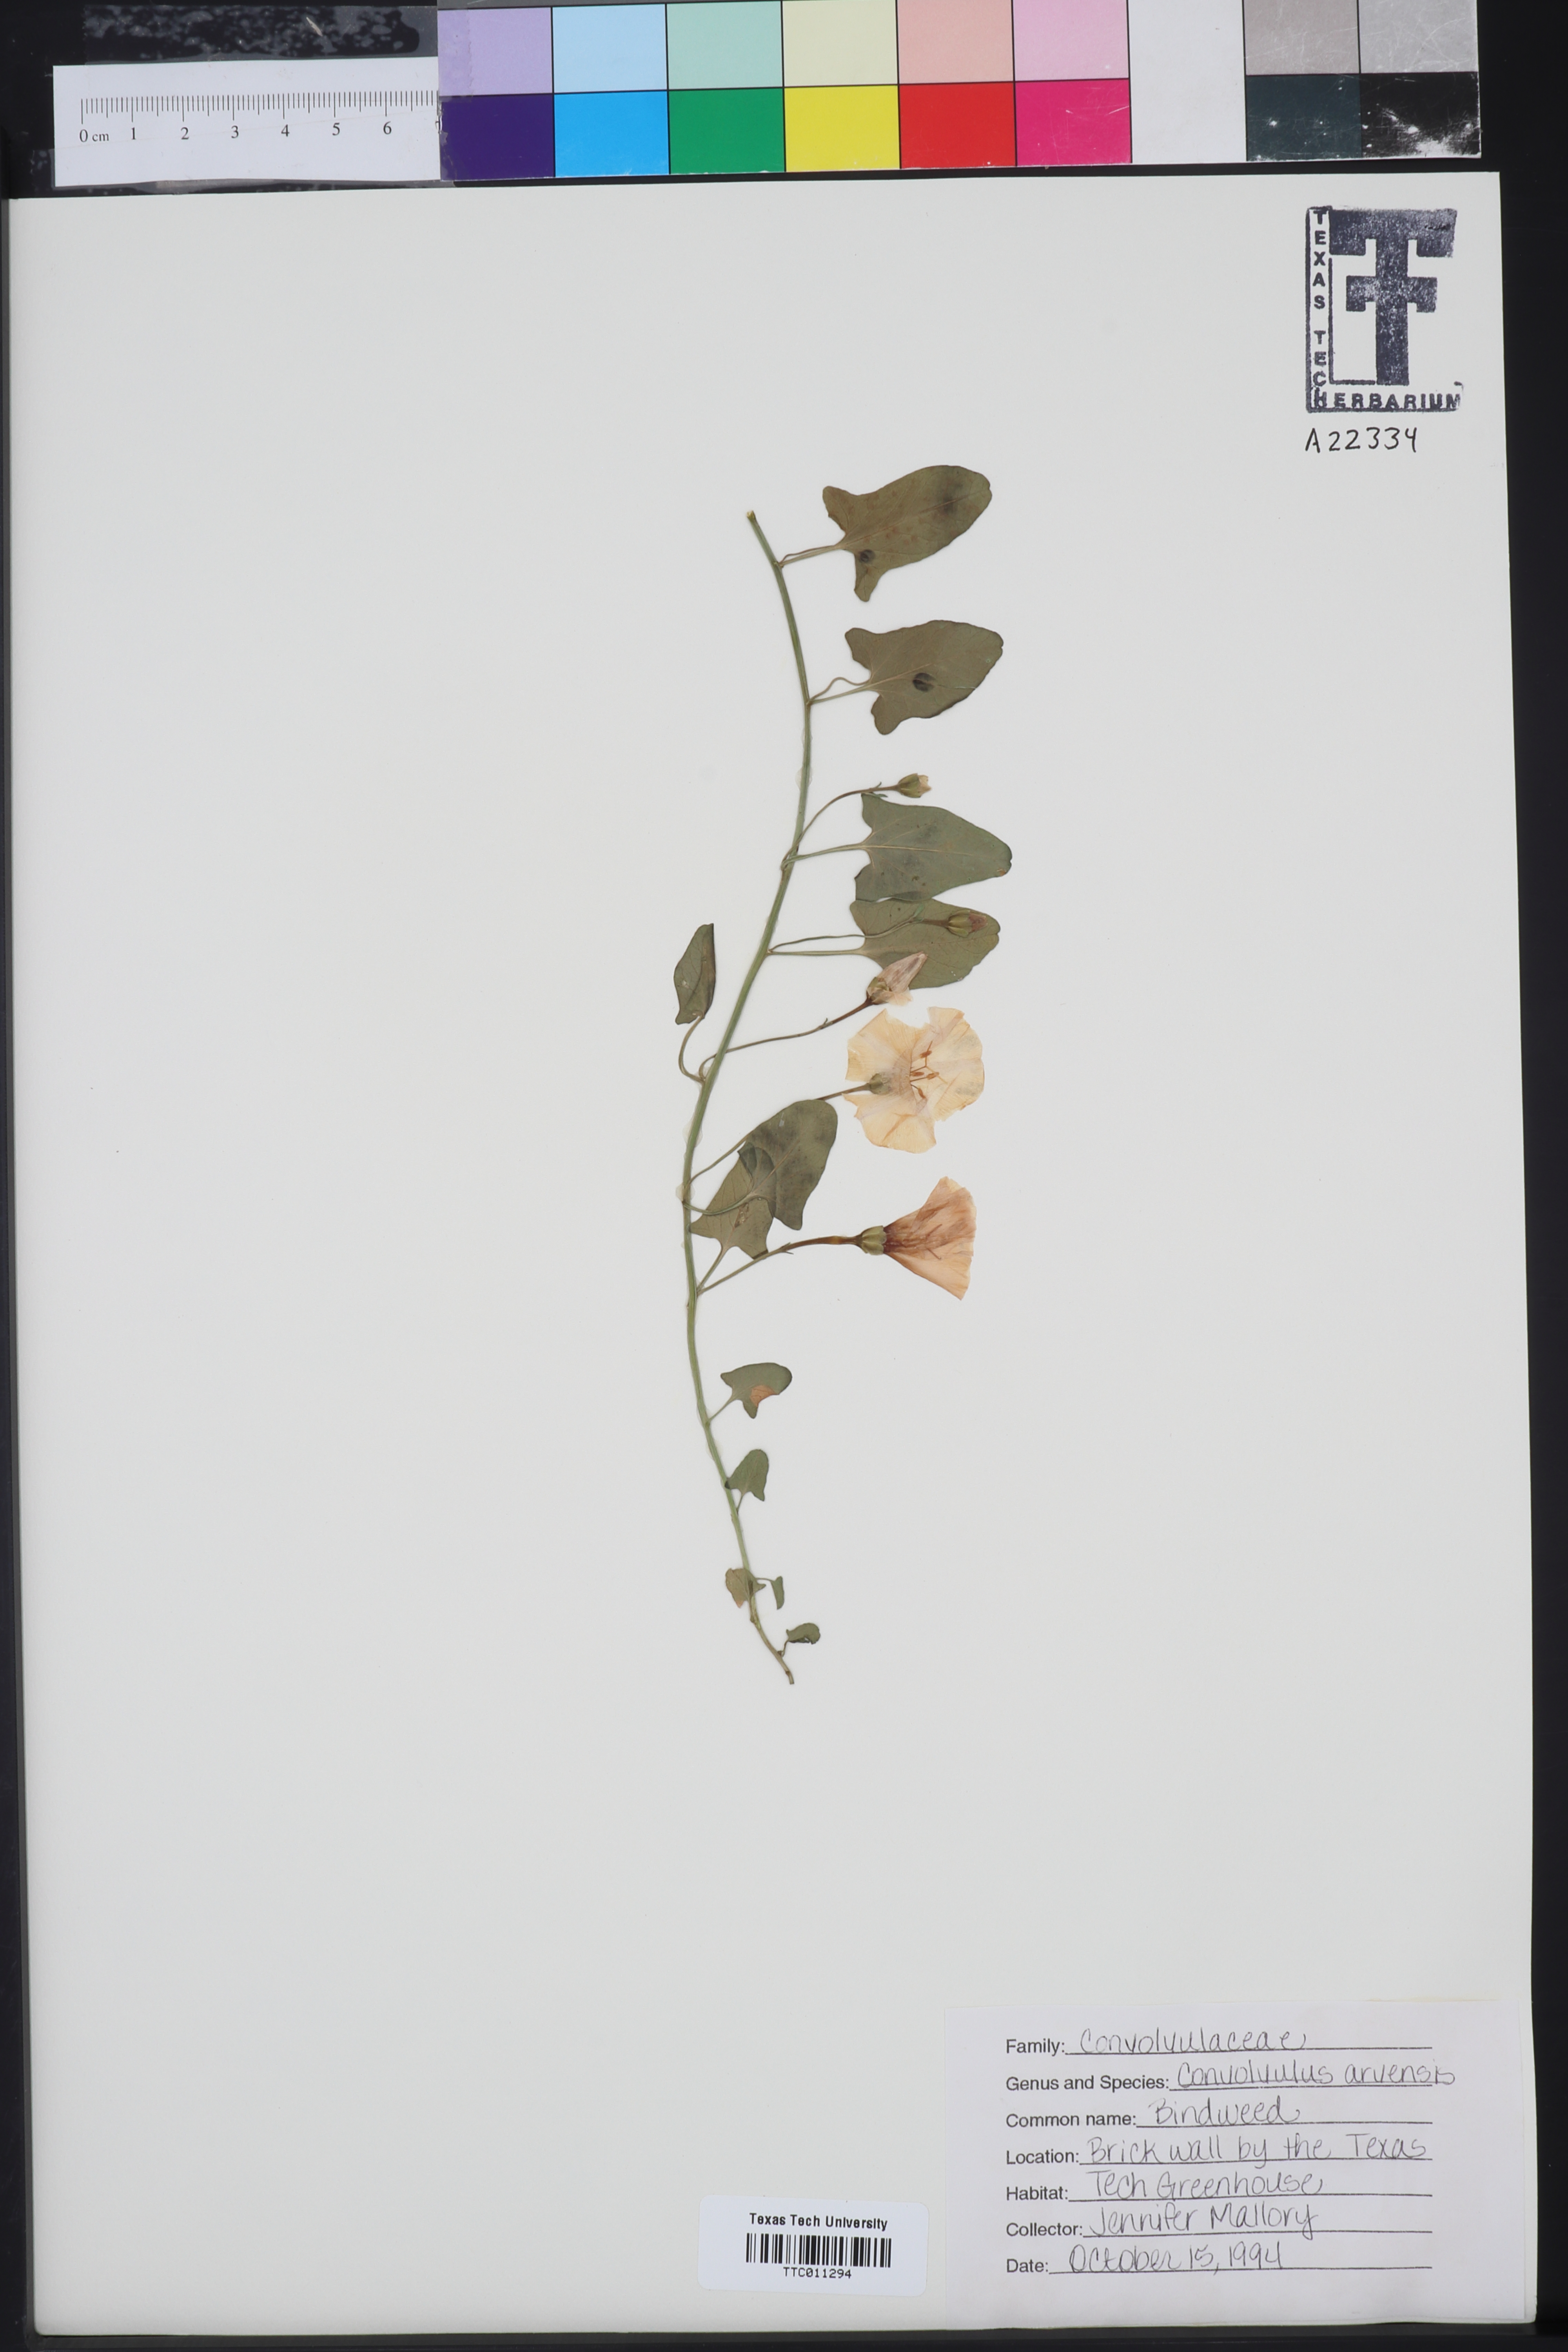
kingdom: Plantae
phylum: Tracheophyta
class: Magnoliopsida
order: Solanales
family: Convolvulaceae
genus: Convolvulus
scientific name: Convolvulus arvensis
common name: Field bindweed
